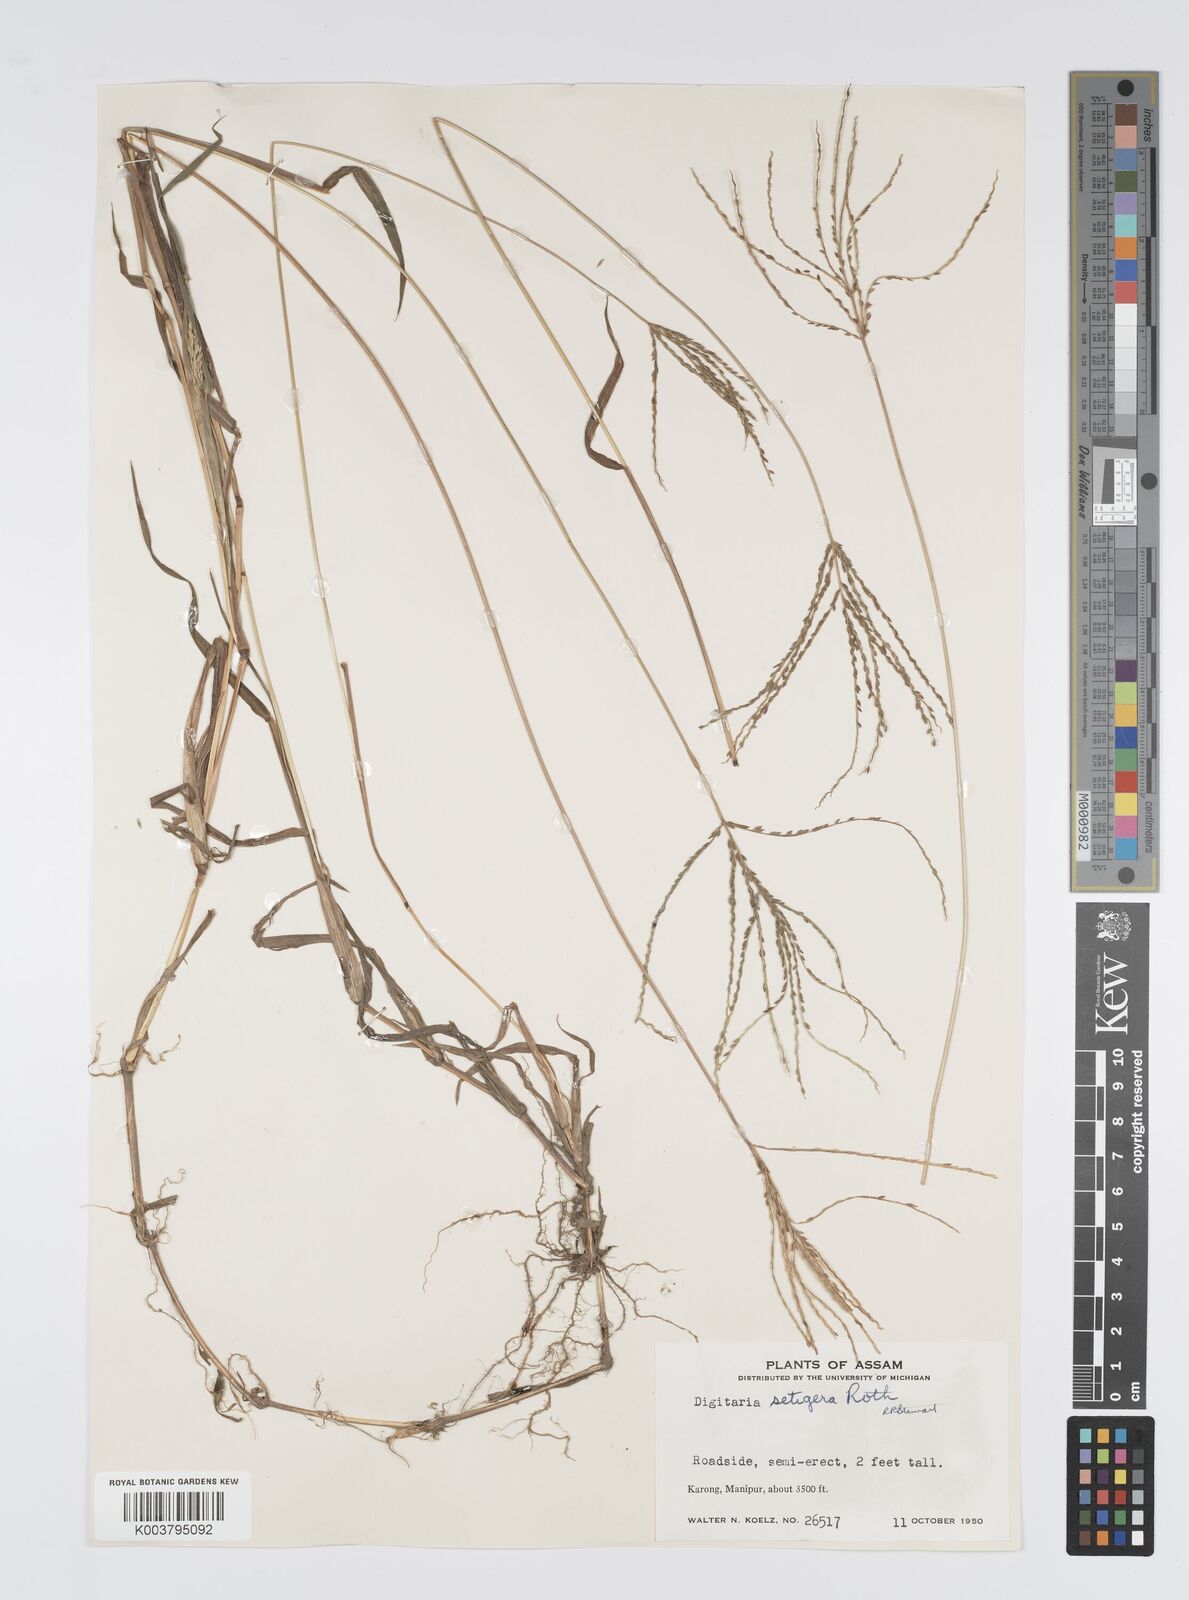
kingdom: Plantae
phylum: Tracheophyta
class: Liliopsida
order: Poales
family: Poaceae
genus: Digitaria
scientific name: Digitaria setigera
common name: East indian crabgrass
